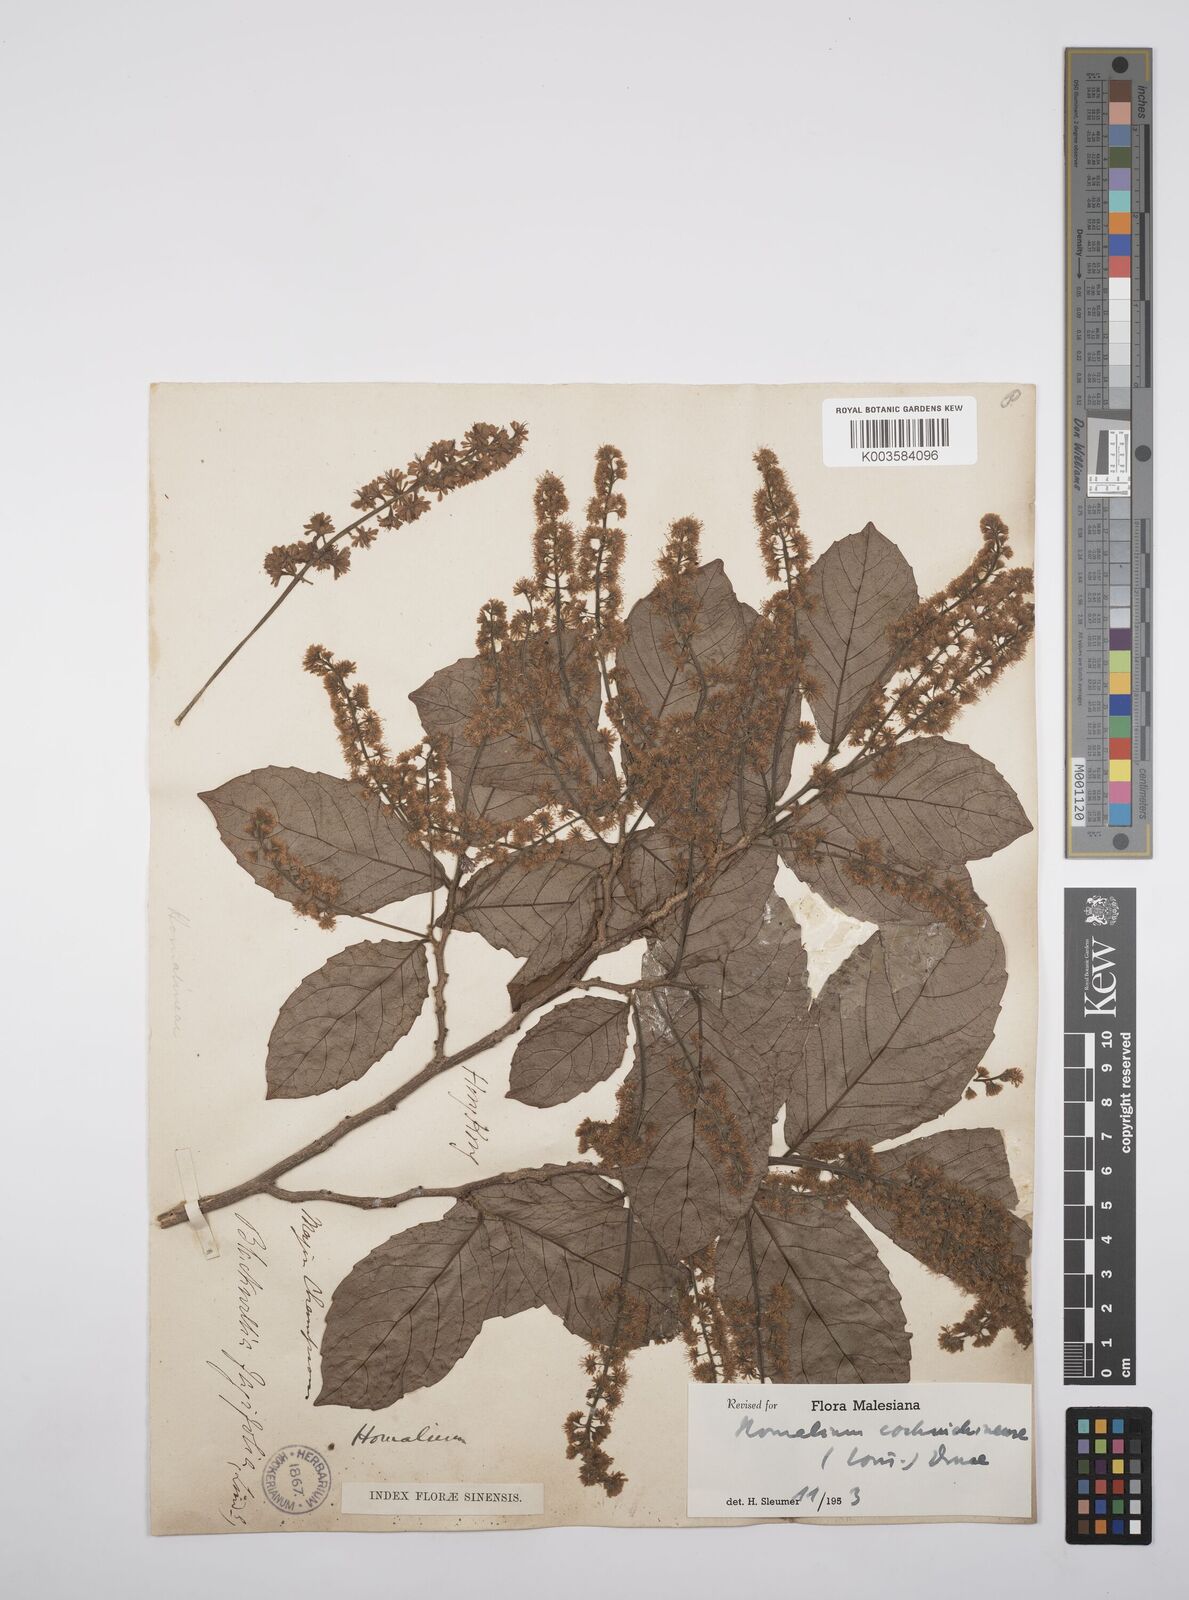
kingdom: Plantae
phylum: Tracheophyta
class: Magnoliopsida
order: Malpighiales
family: Salicaceae
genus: Homalium
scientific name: Homalium cochinchinensis
